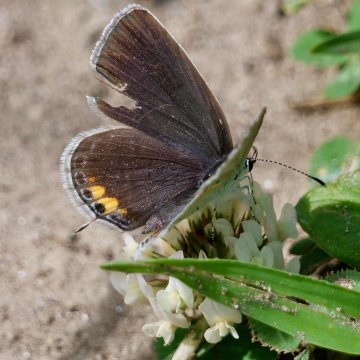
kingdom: Animalia
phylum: Arthropoda
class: Insecta
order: Lepidoptera
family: Lycaenidae
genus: Elkalyce
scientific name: Elkalyce comyntas
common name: Eastern Tailed-Blue
